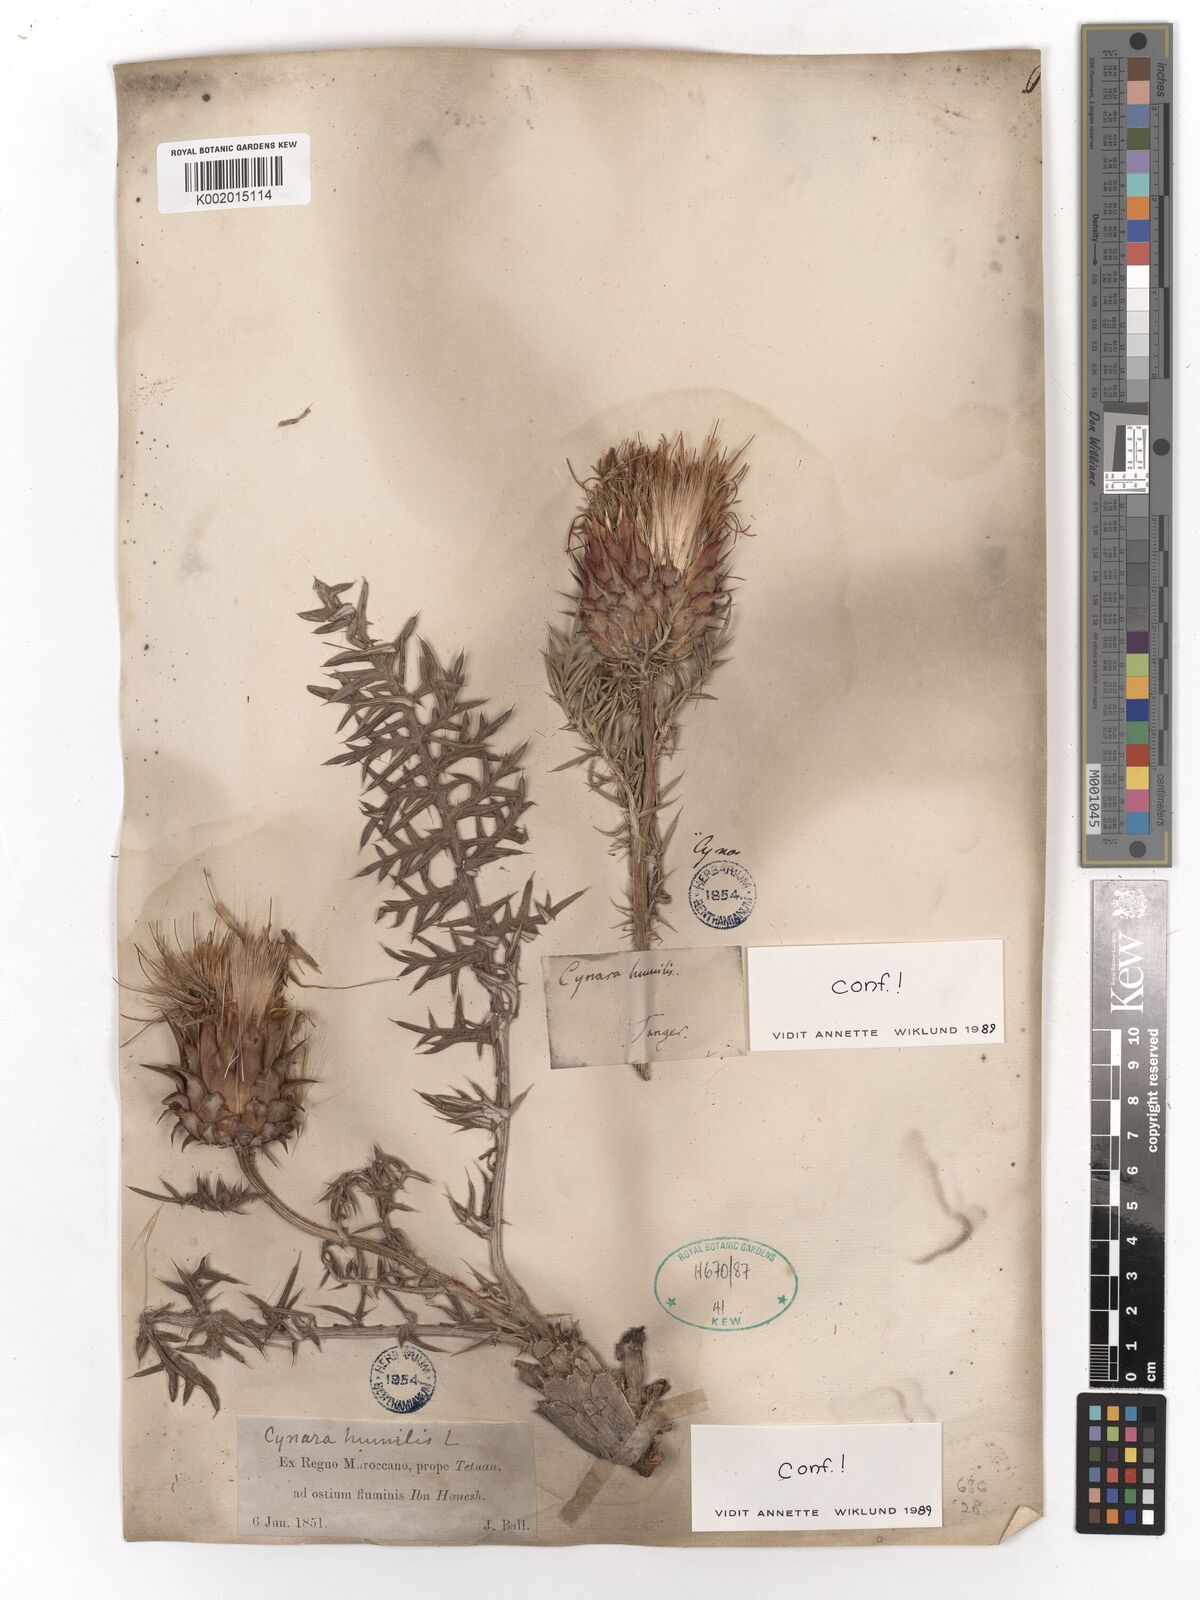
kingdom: Plantae
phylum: Tracheophyta
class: Magnoliopsida
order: Asterales
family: Asteraceae
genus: Cynara
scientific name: Cynara humilis
